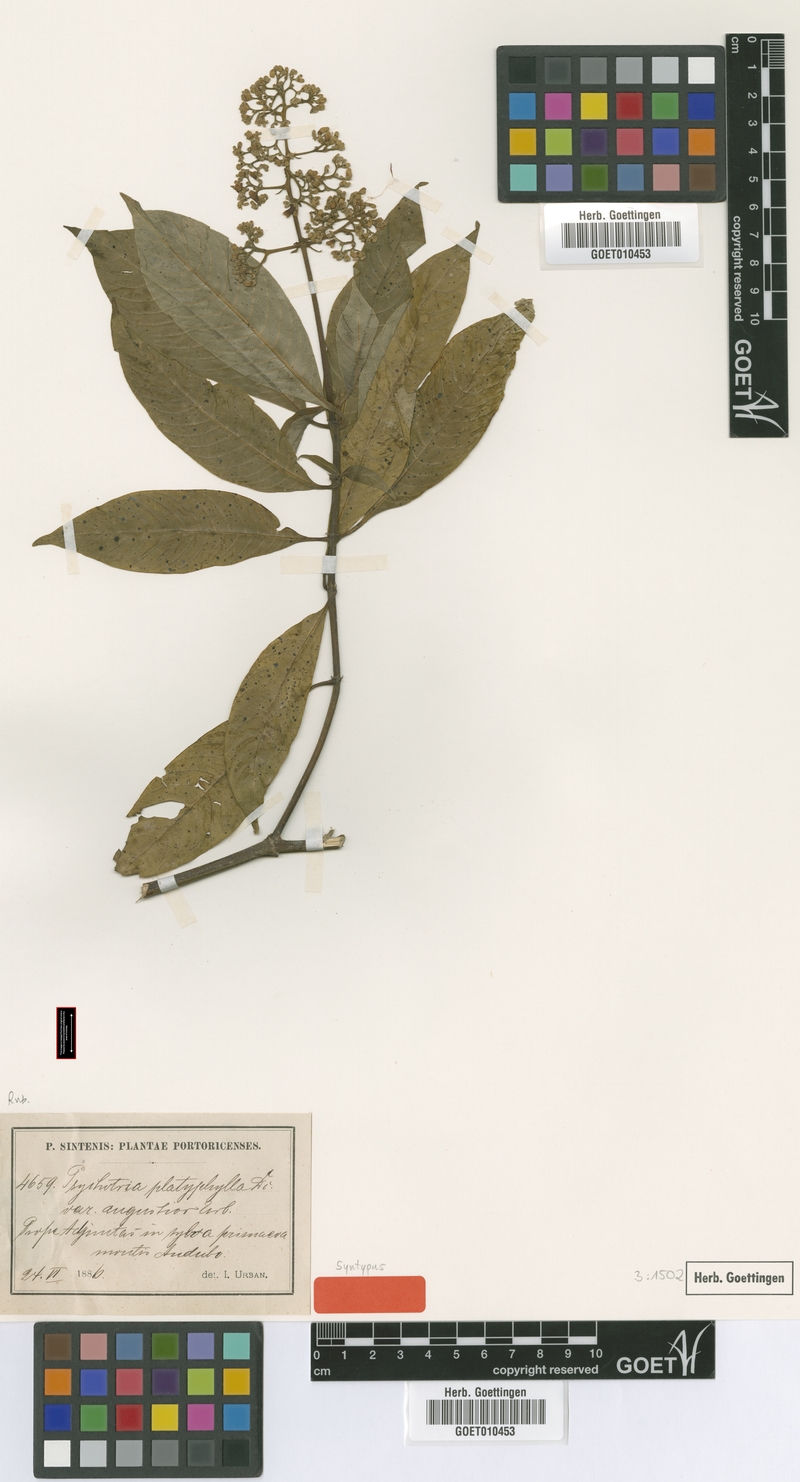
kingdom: Plantae
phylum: Tracheophyta
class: Magnoliopsida
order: Gentianales
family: Rubiaceae
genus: Palicourea
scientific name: Palicourea berteroana
